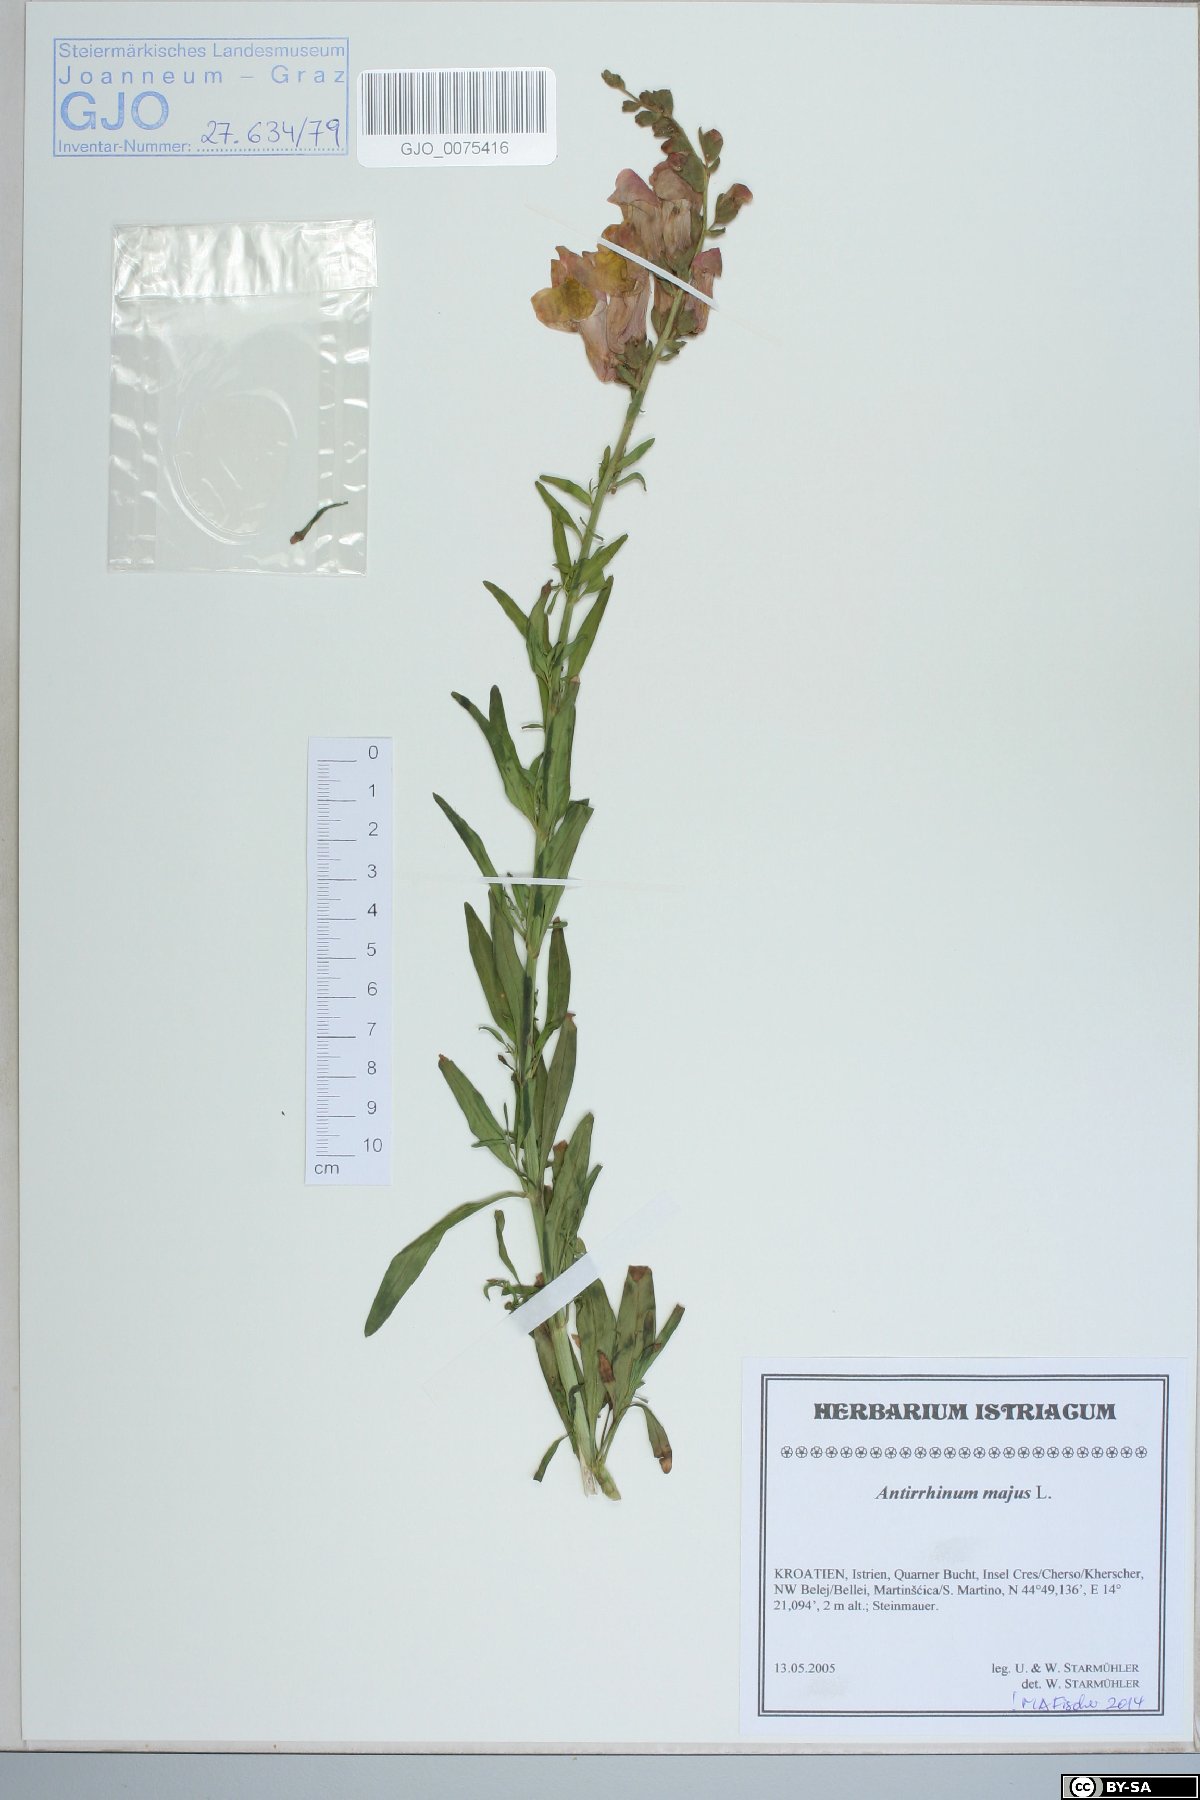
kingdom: Plantae
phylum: Tracheophyta
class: Magnoliopsida
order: Lamiales
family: Plantaginaceae
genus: Antirrhinum
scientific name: Antirrhinum majus
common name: Snapdragon
